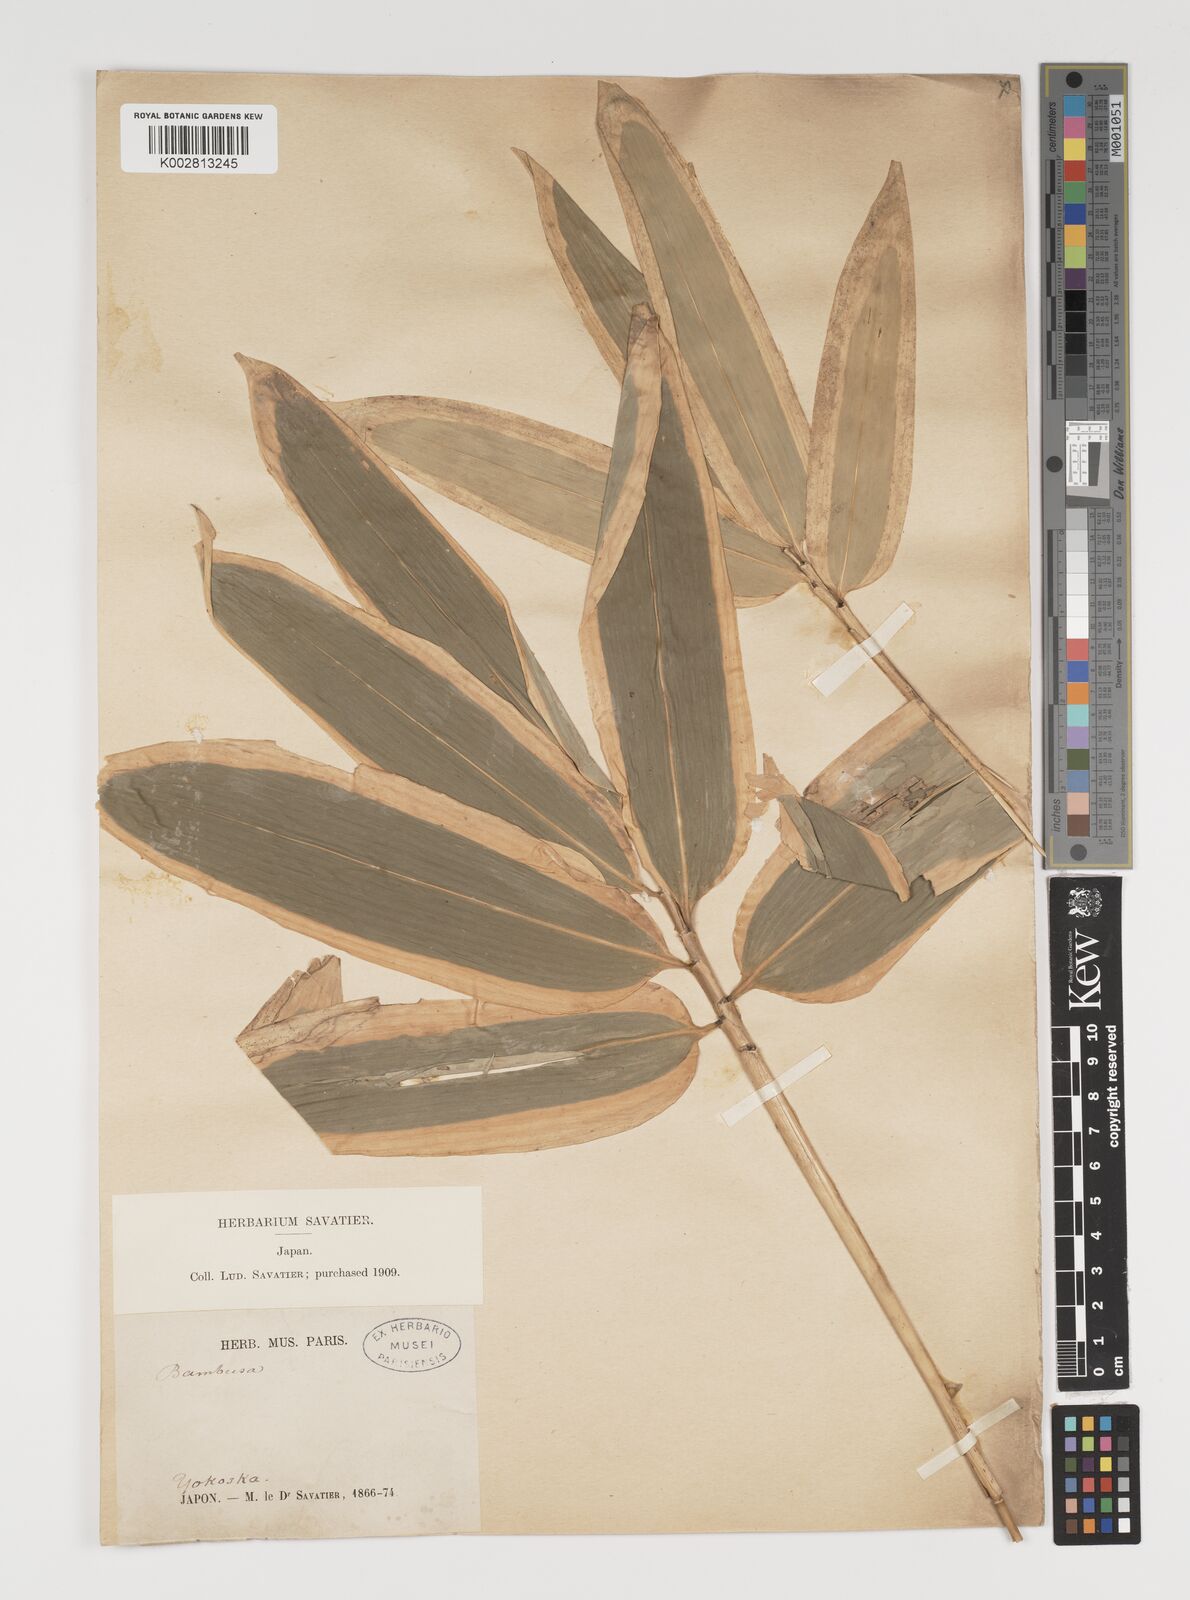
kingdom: Plantae
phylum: Tracheophyta
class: Liliopsida
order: Poales
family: Poaceae
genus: Sasa
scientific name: Sasa veitchii
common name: Veitch's bamboo
